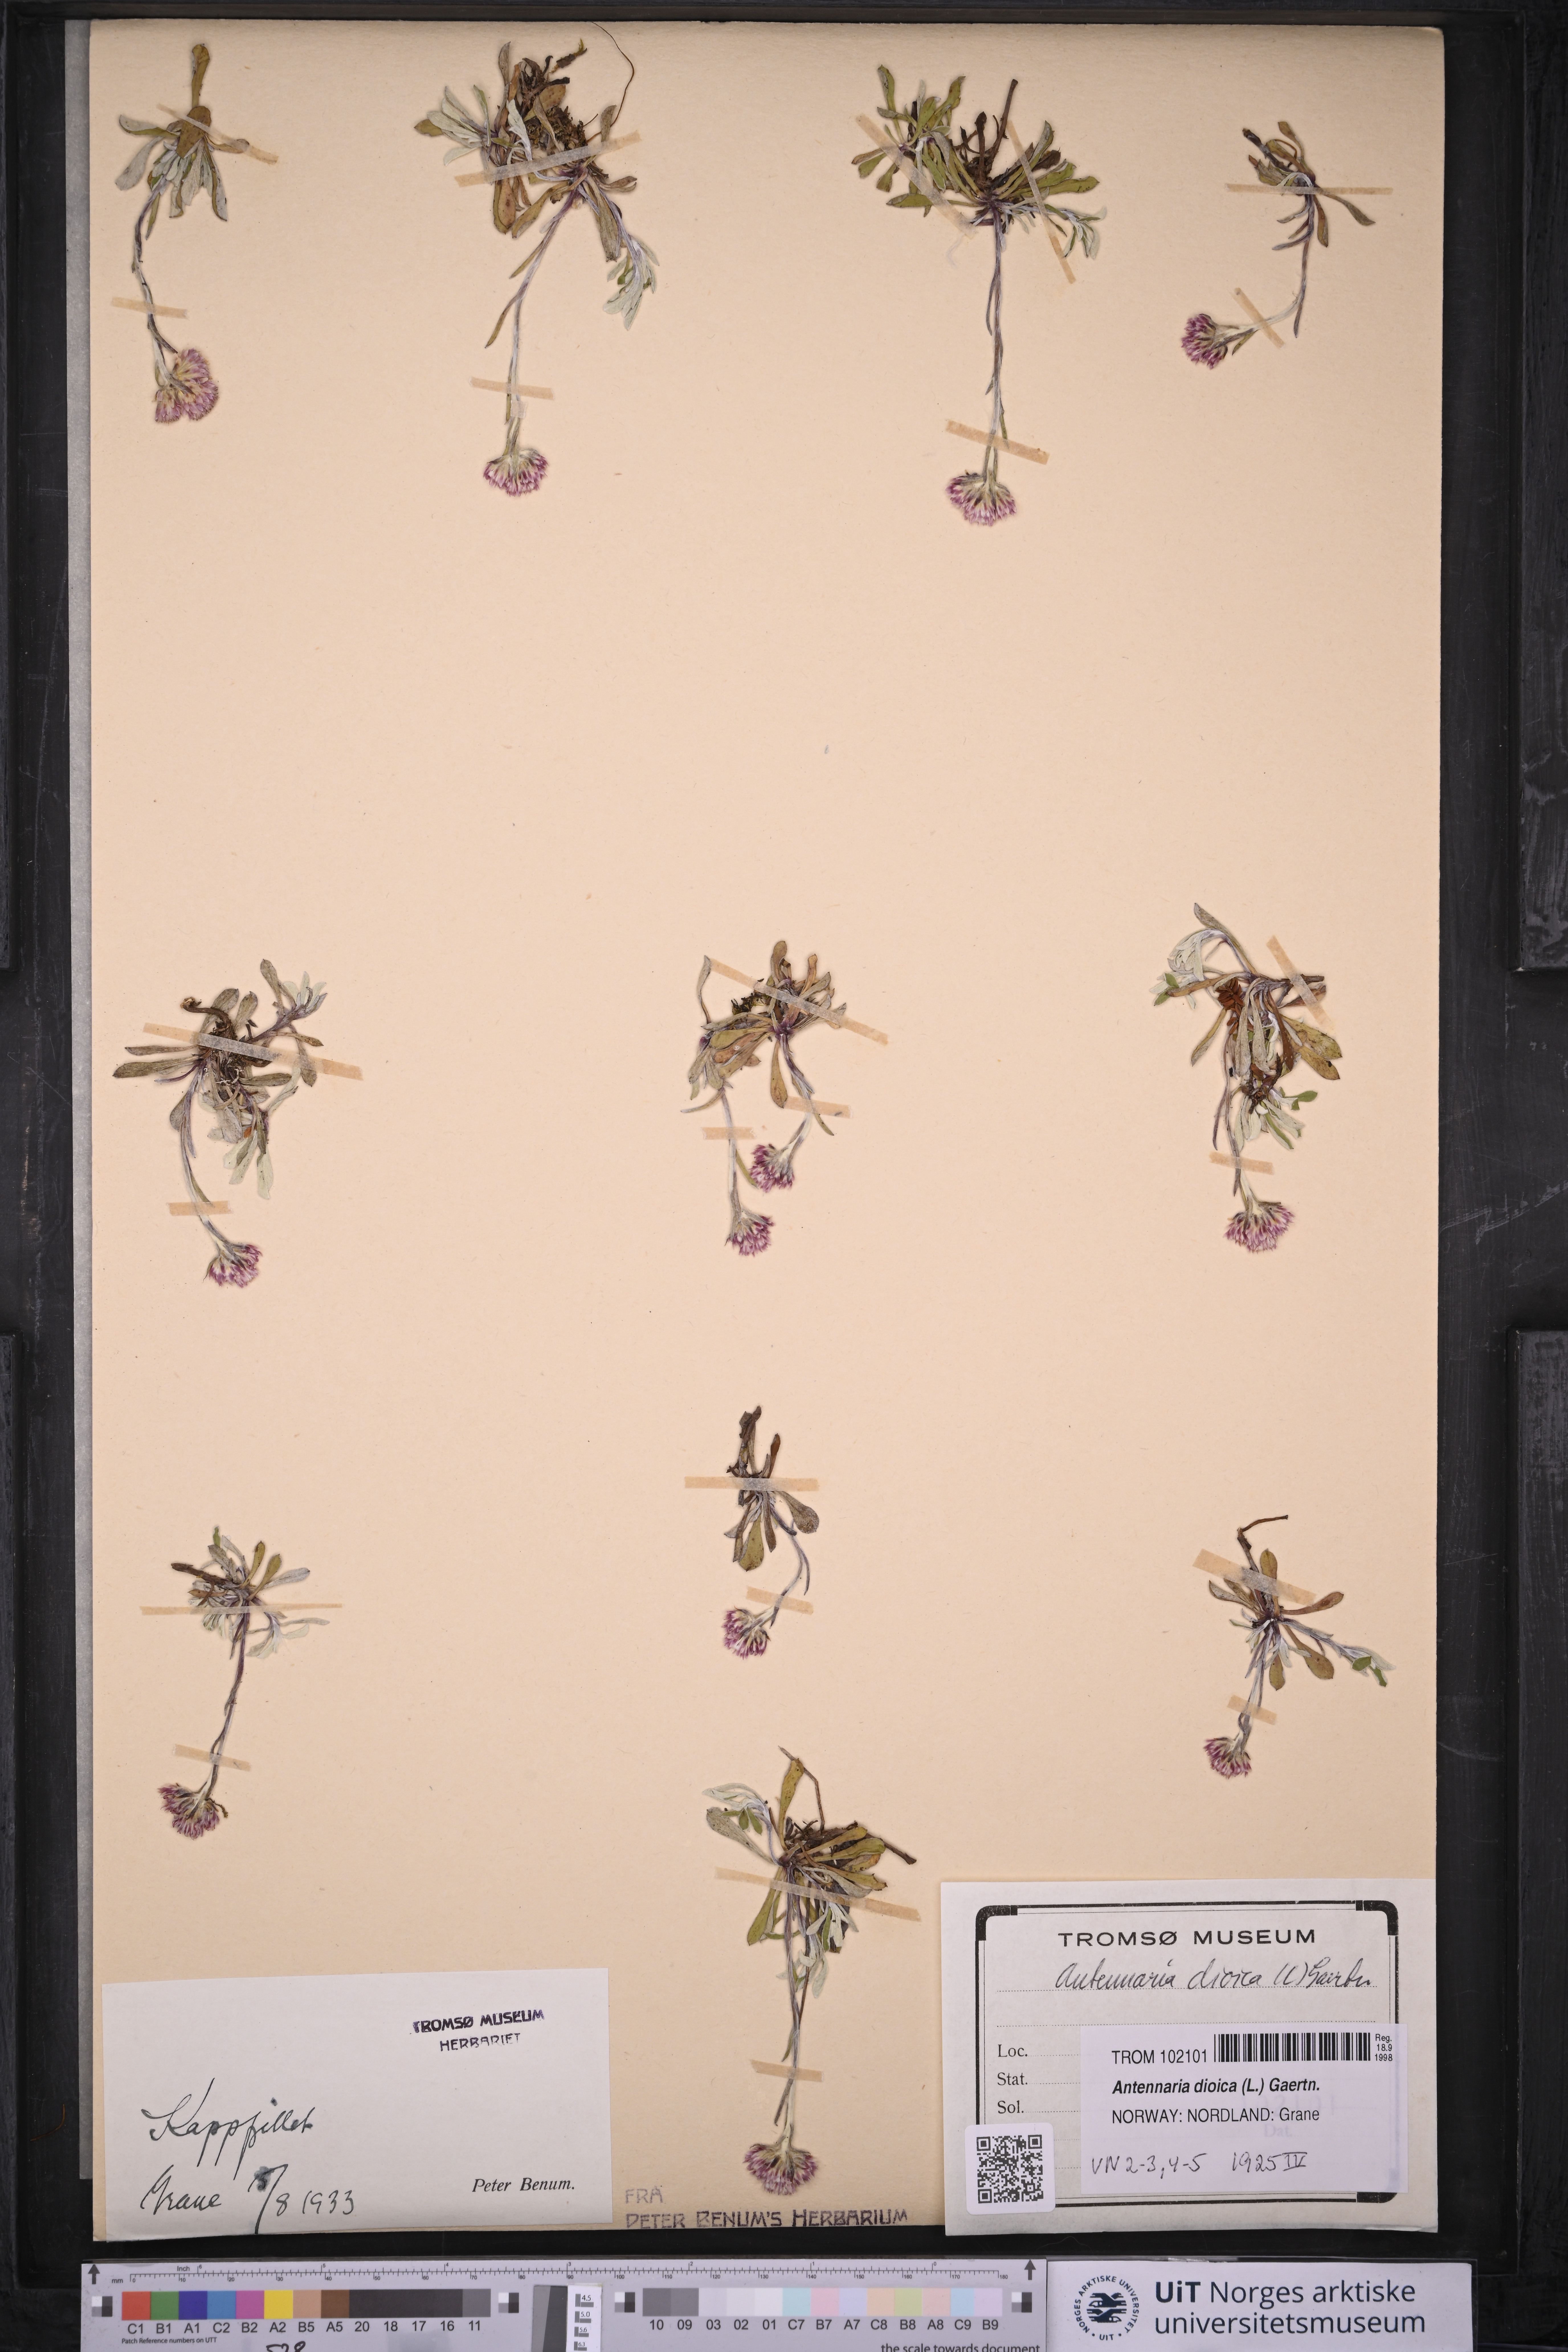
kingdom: Plantae
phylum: Tracheophyta
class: Magnoliopsida
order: Asterales
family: Asteraceae
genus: Antennaria
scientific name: Antennaria dioica
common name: Mountain everlasting
